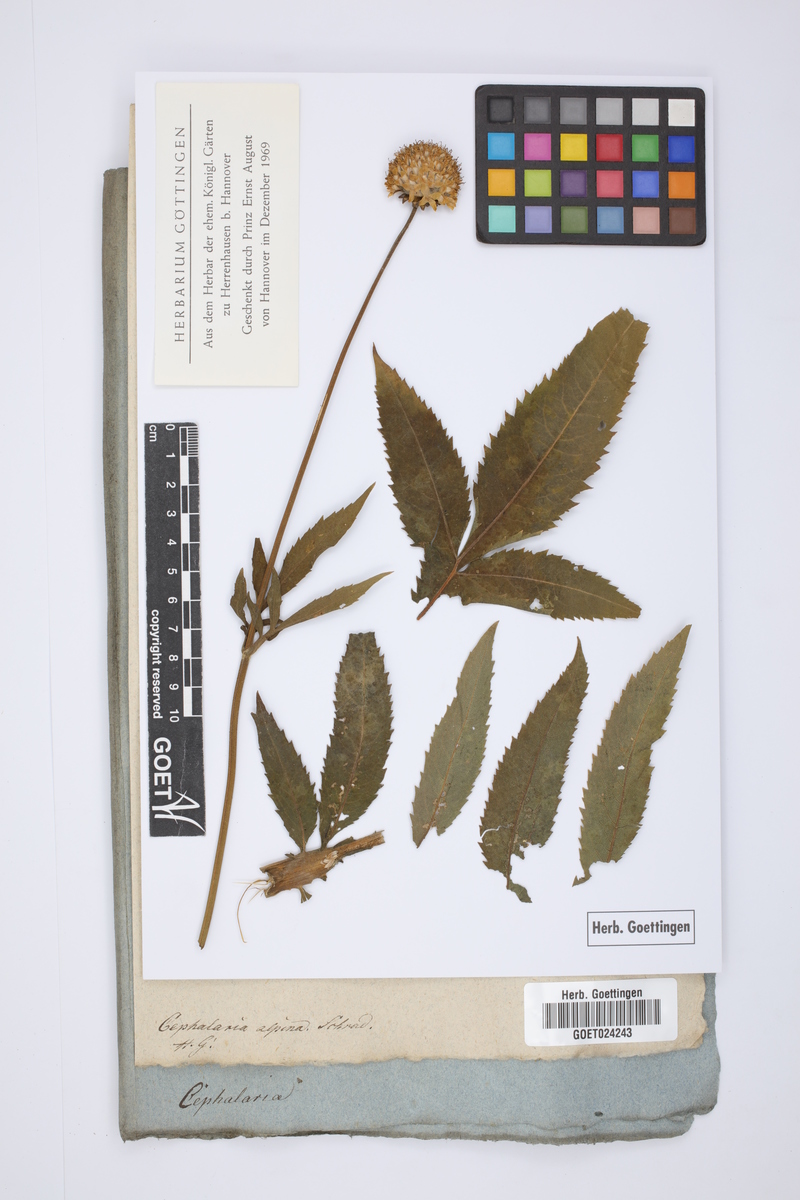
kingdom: Plantae
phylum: Tracheophyta
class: Magnoliopsida
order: Dipsacales
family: Caprifoliaceae
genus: Cephalaria
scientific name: Cephalaria alpina
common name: Alpine-scabious
